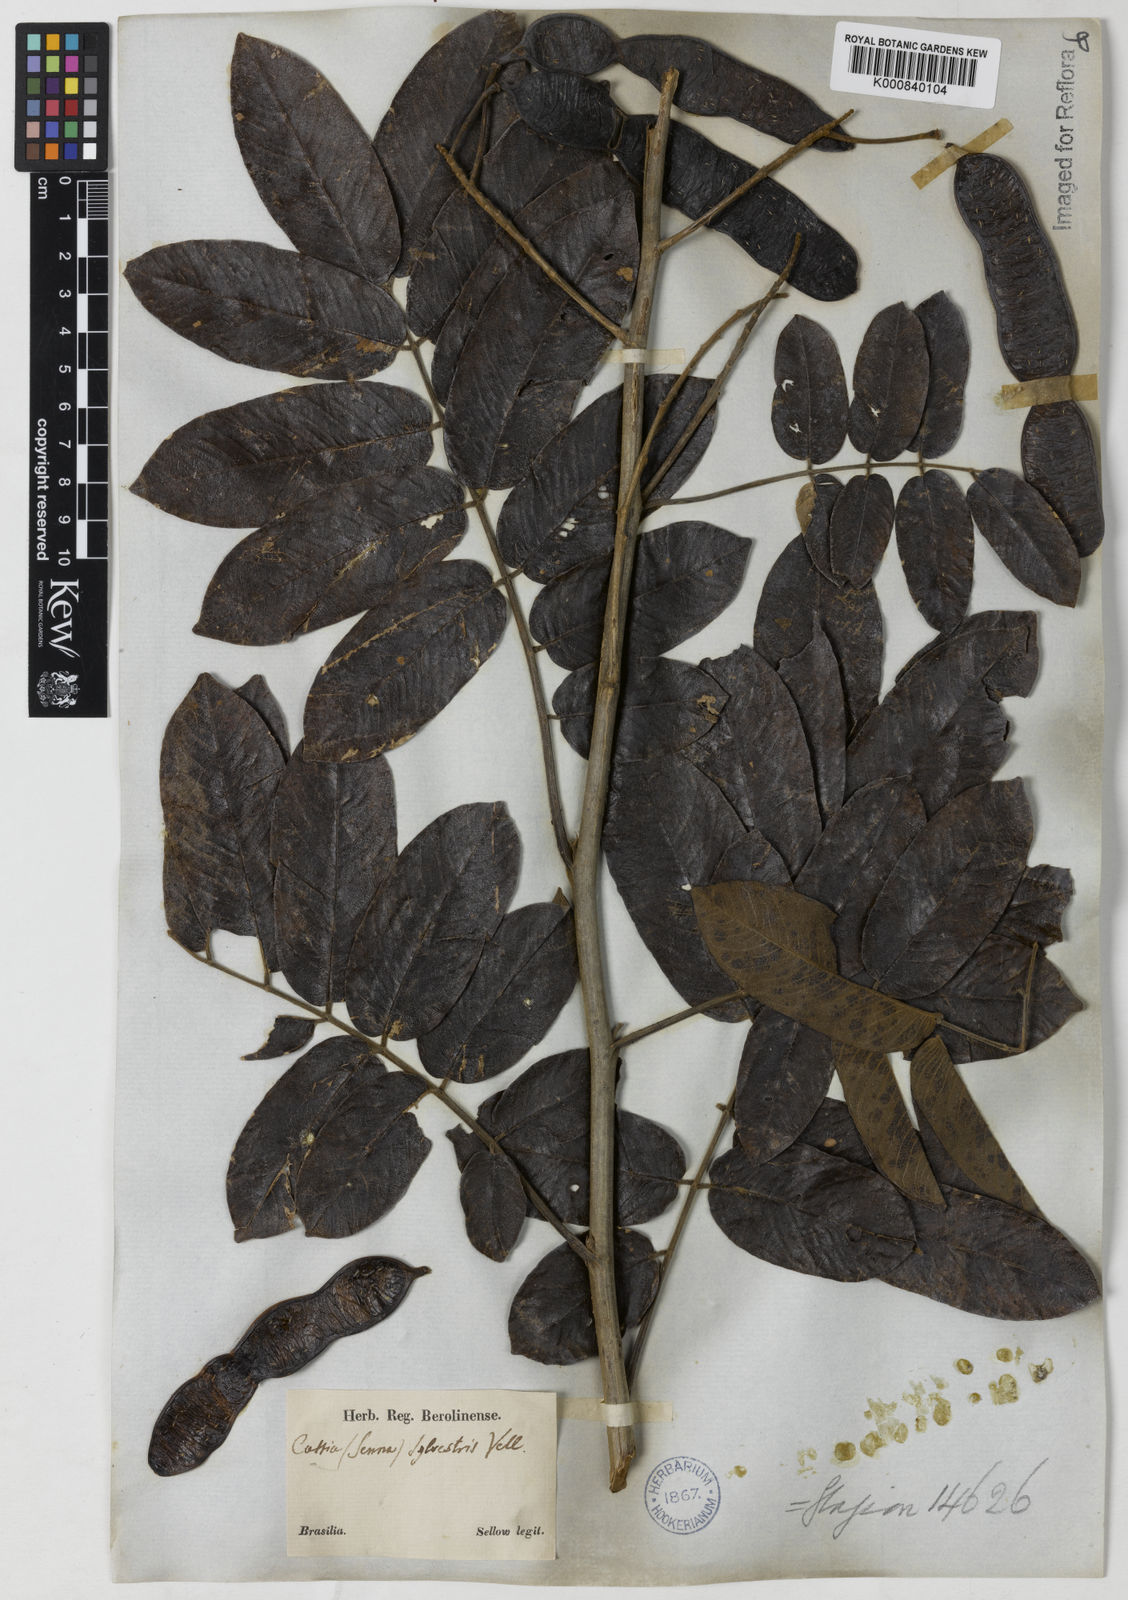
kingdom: Plantae
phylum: Tracheophyta
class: Magnoliopsida
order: Fabales
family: Fabaceae
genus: Senna
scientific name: Senna silvestris
